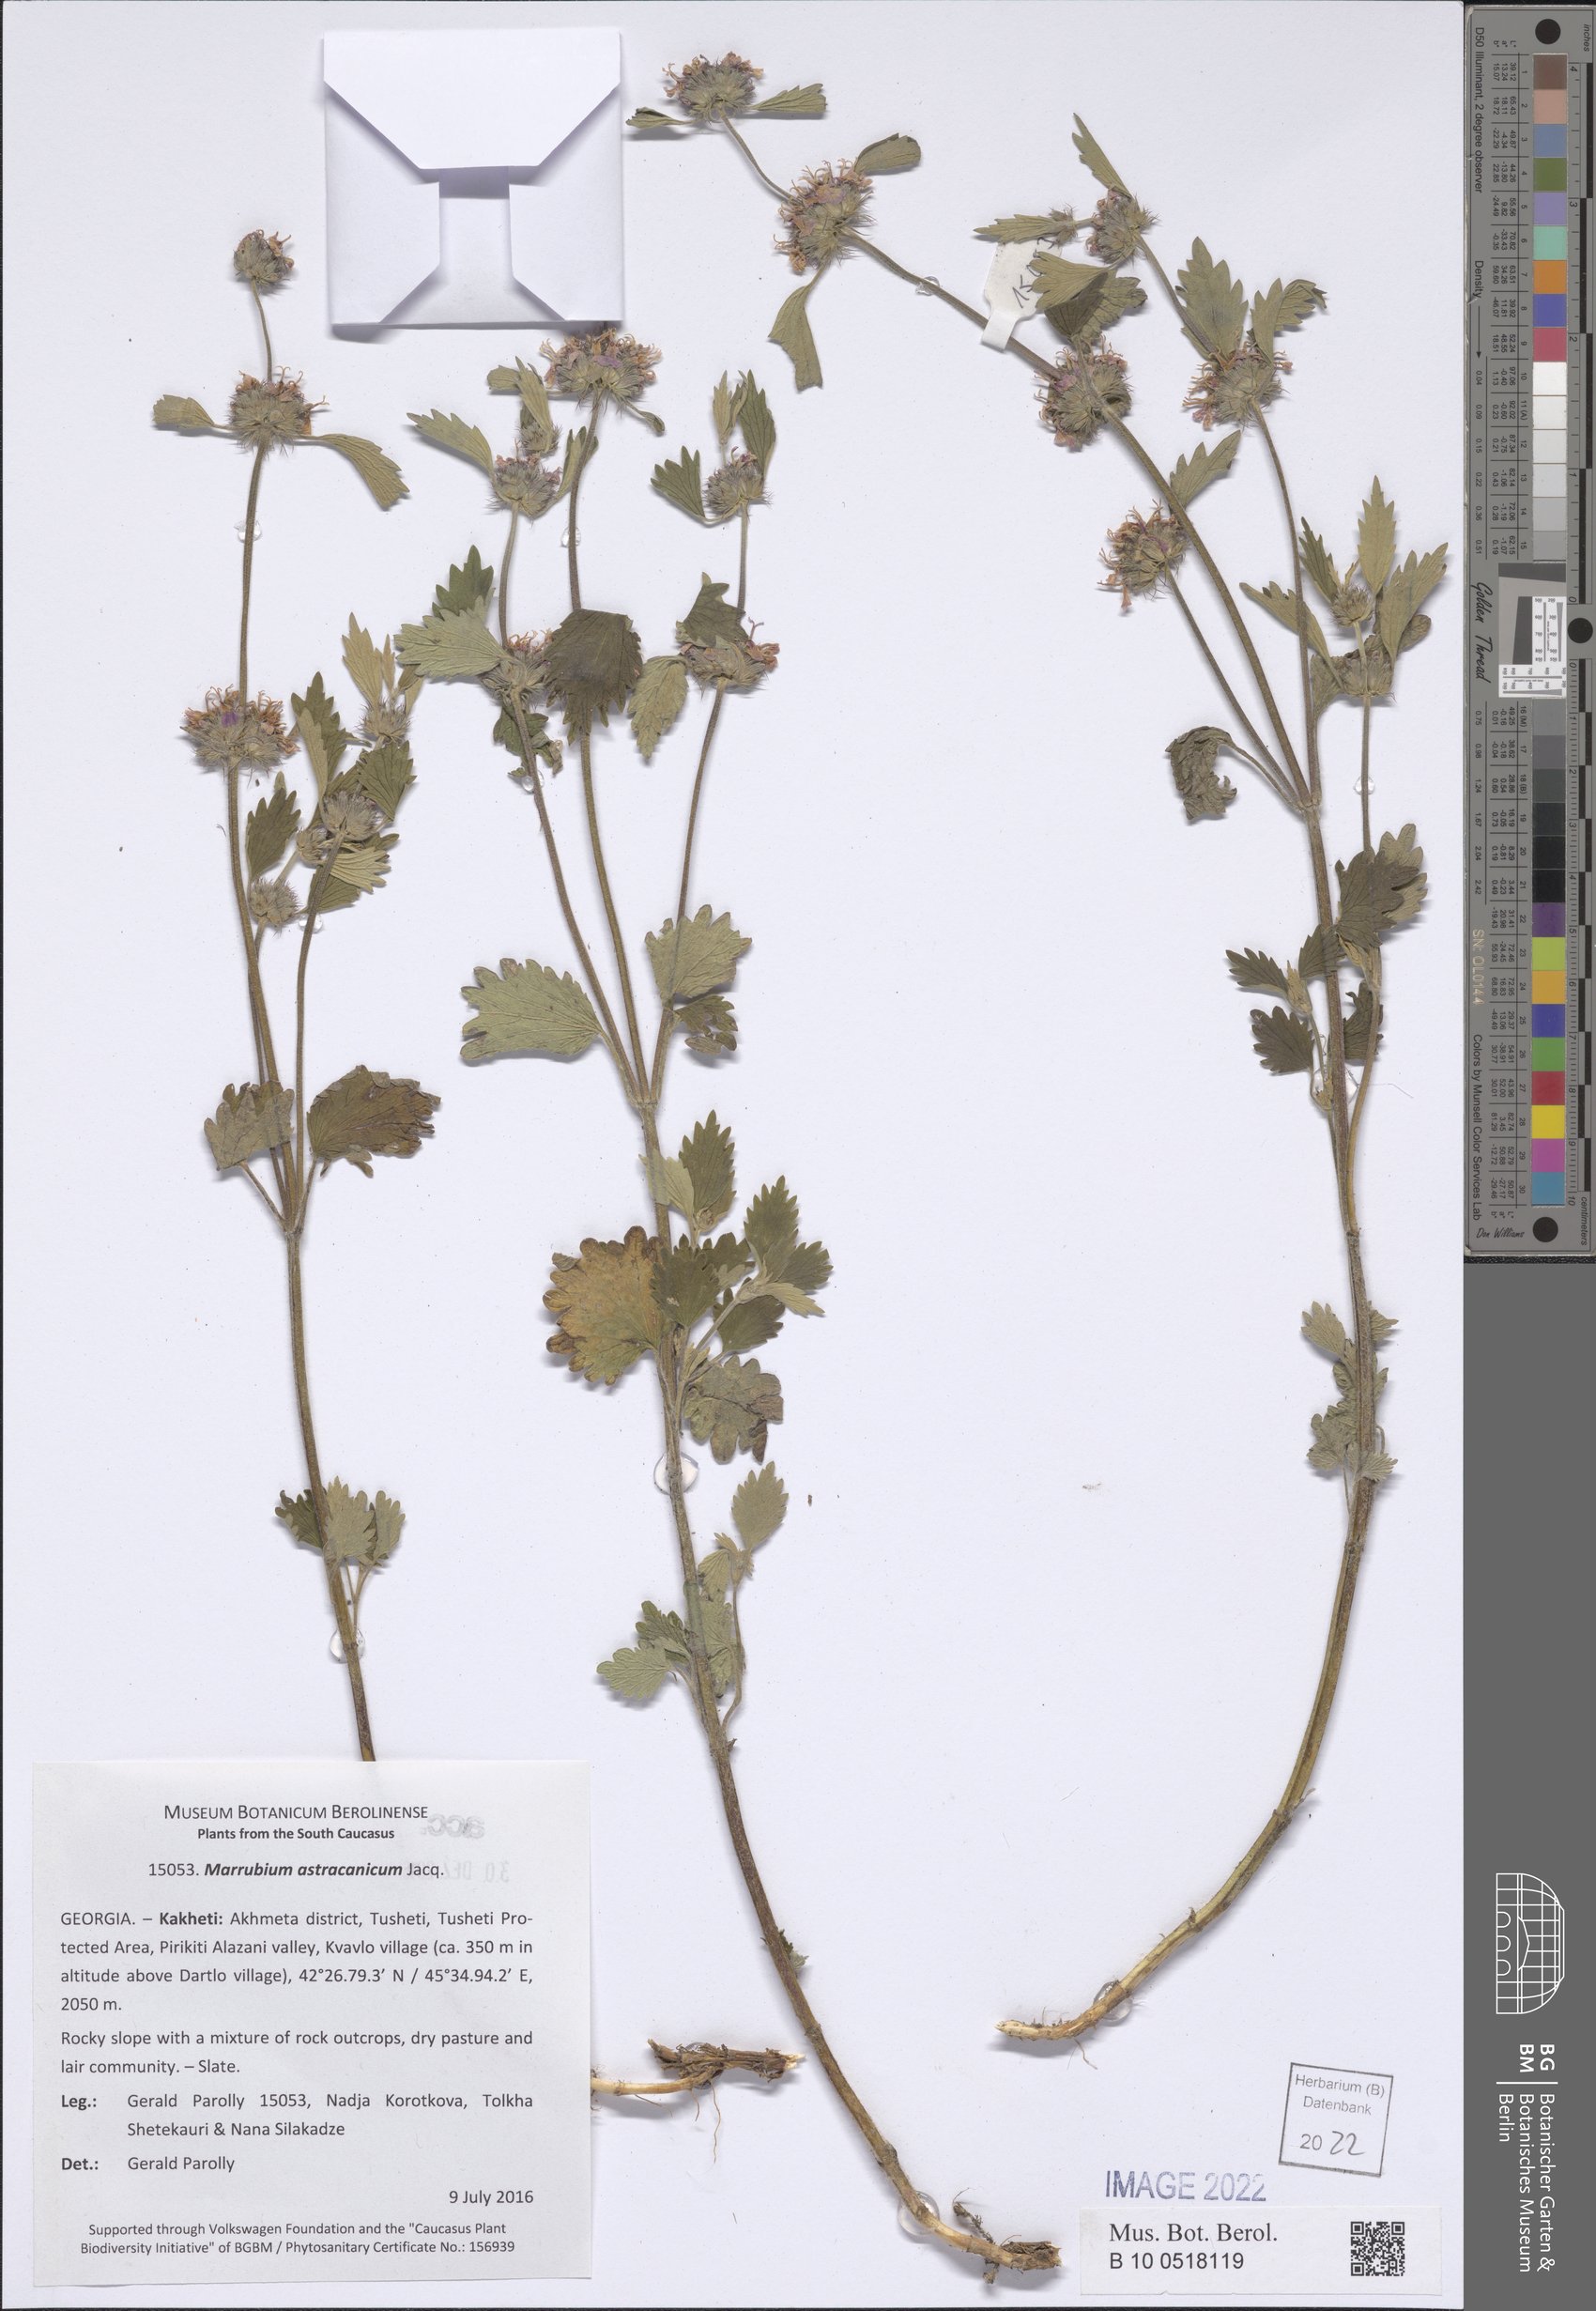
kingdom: Plantae
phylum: Tracheophyta
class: Magnoliopsida
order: Lamiales
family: Lamiaceae
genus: Marrubium
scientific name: Marrubium astracanicum
